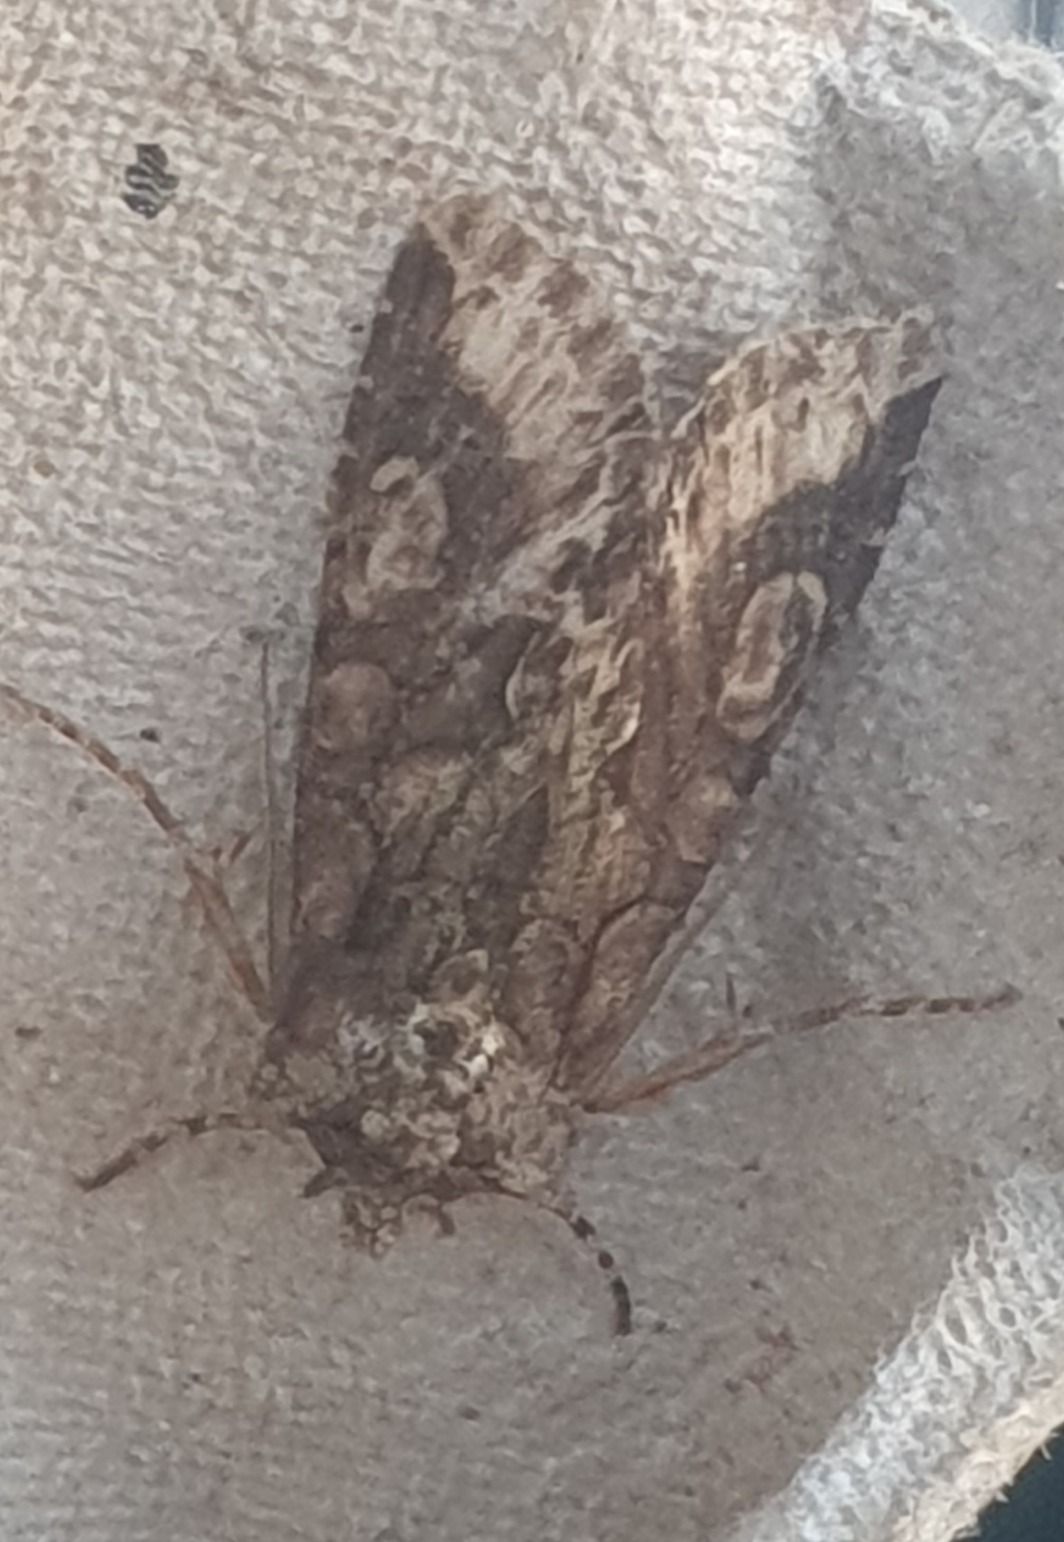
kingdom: Animalia
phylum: Arthropoda
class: Insecta
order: Lepidoptera
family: Noctuidae
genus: Allophyes
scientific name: Allophyes oxyacanthae
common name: Tjørneugle
